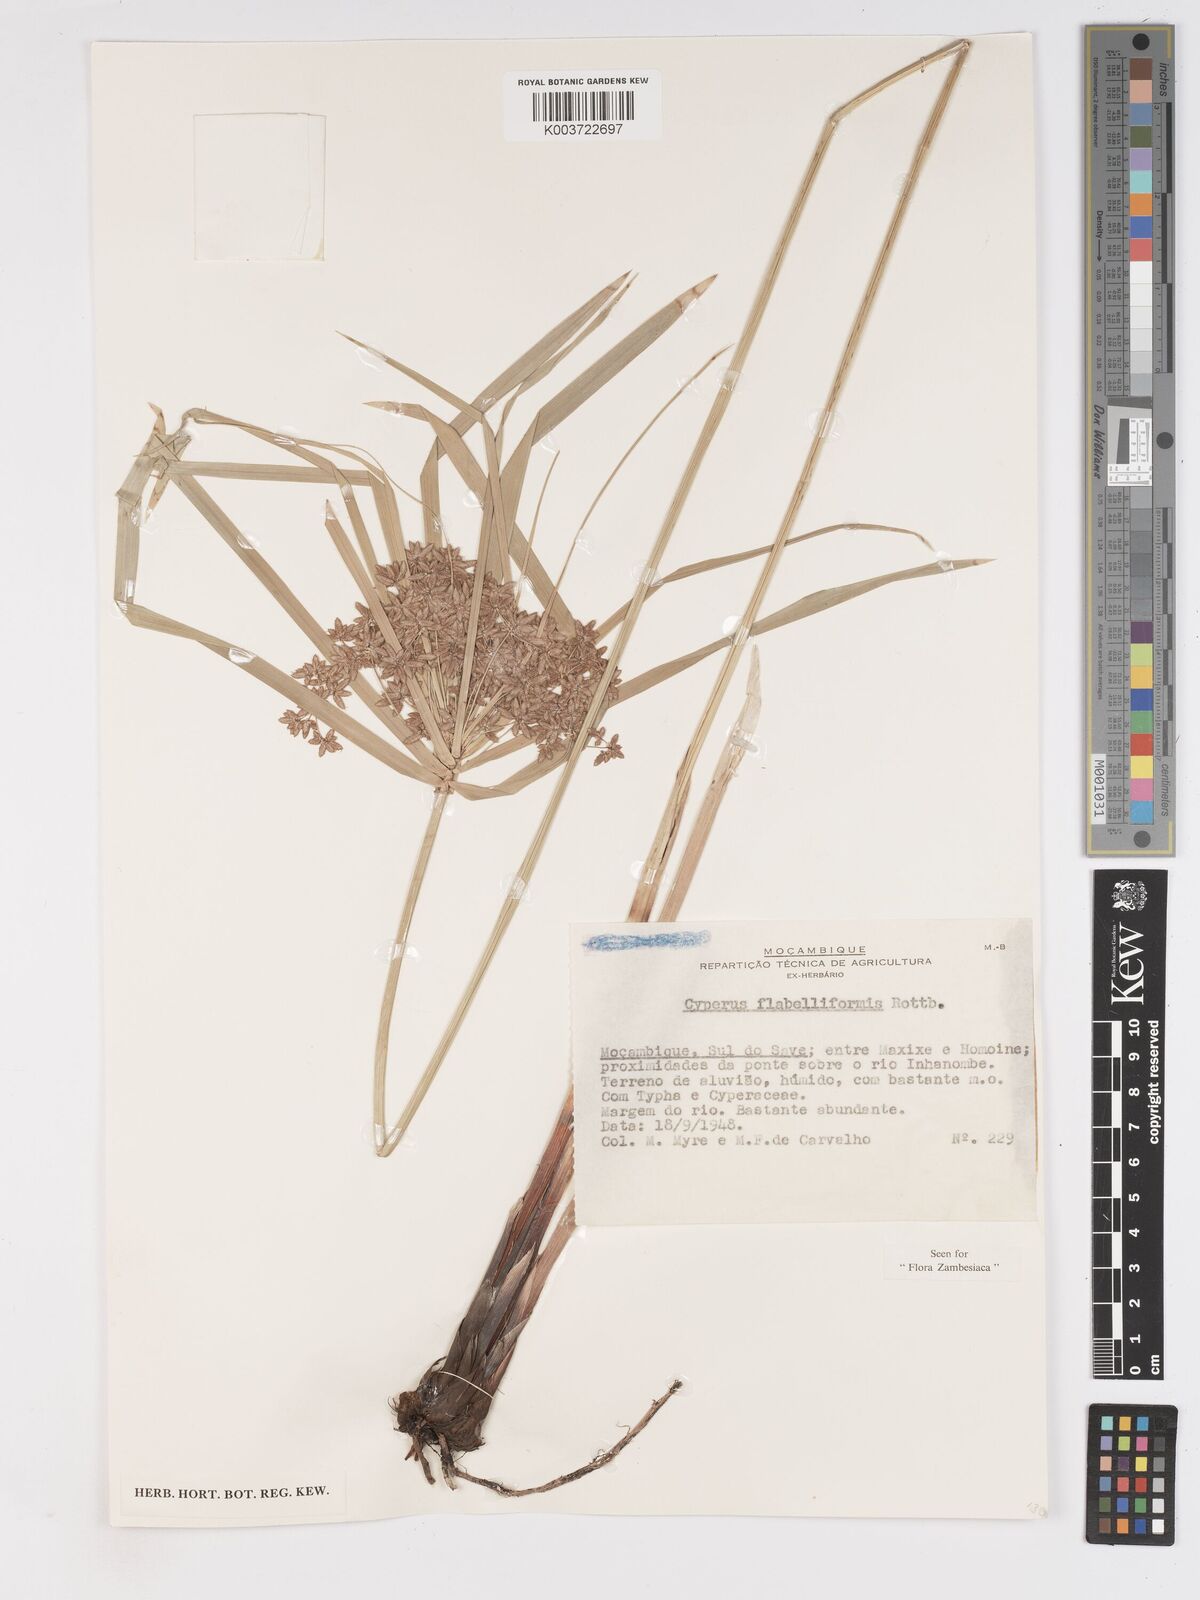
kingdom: Plantae
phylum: Tracheophyta
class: Liliopsida
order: Poales
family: Cyperaceae
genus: Cyperus
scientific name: Cyperus alternifolius
